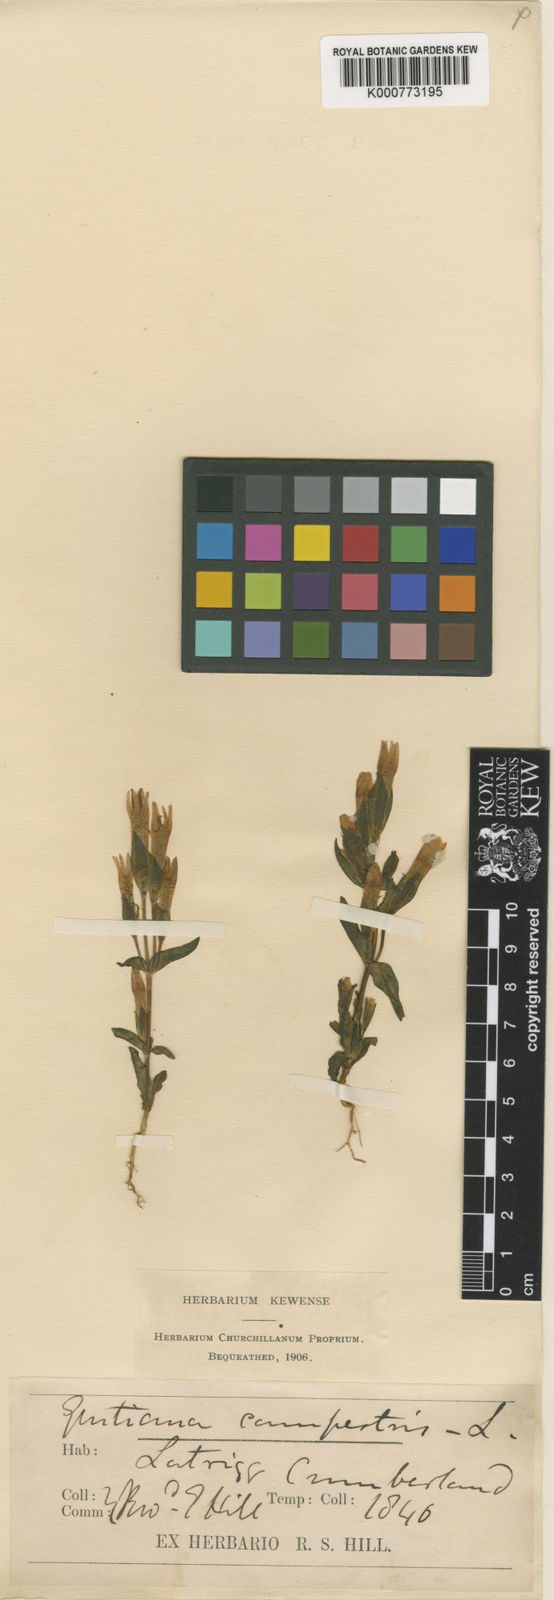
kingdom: Plantae
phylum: Tracheophyta
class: Magnoliopsida
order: Gentianales
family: Gentianaceae
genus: Gentianella
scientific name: Gentianella
